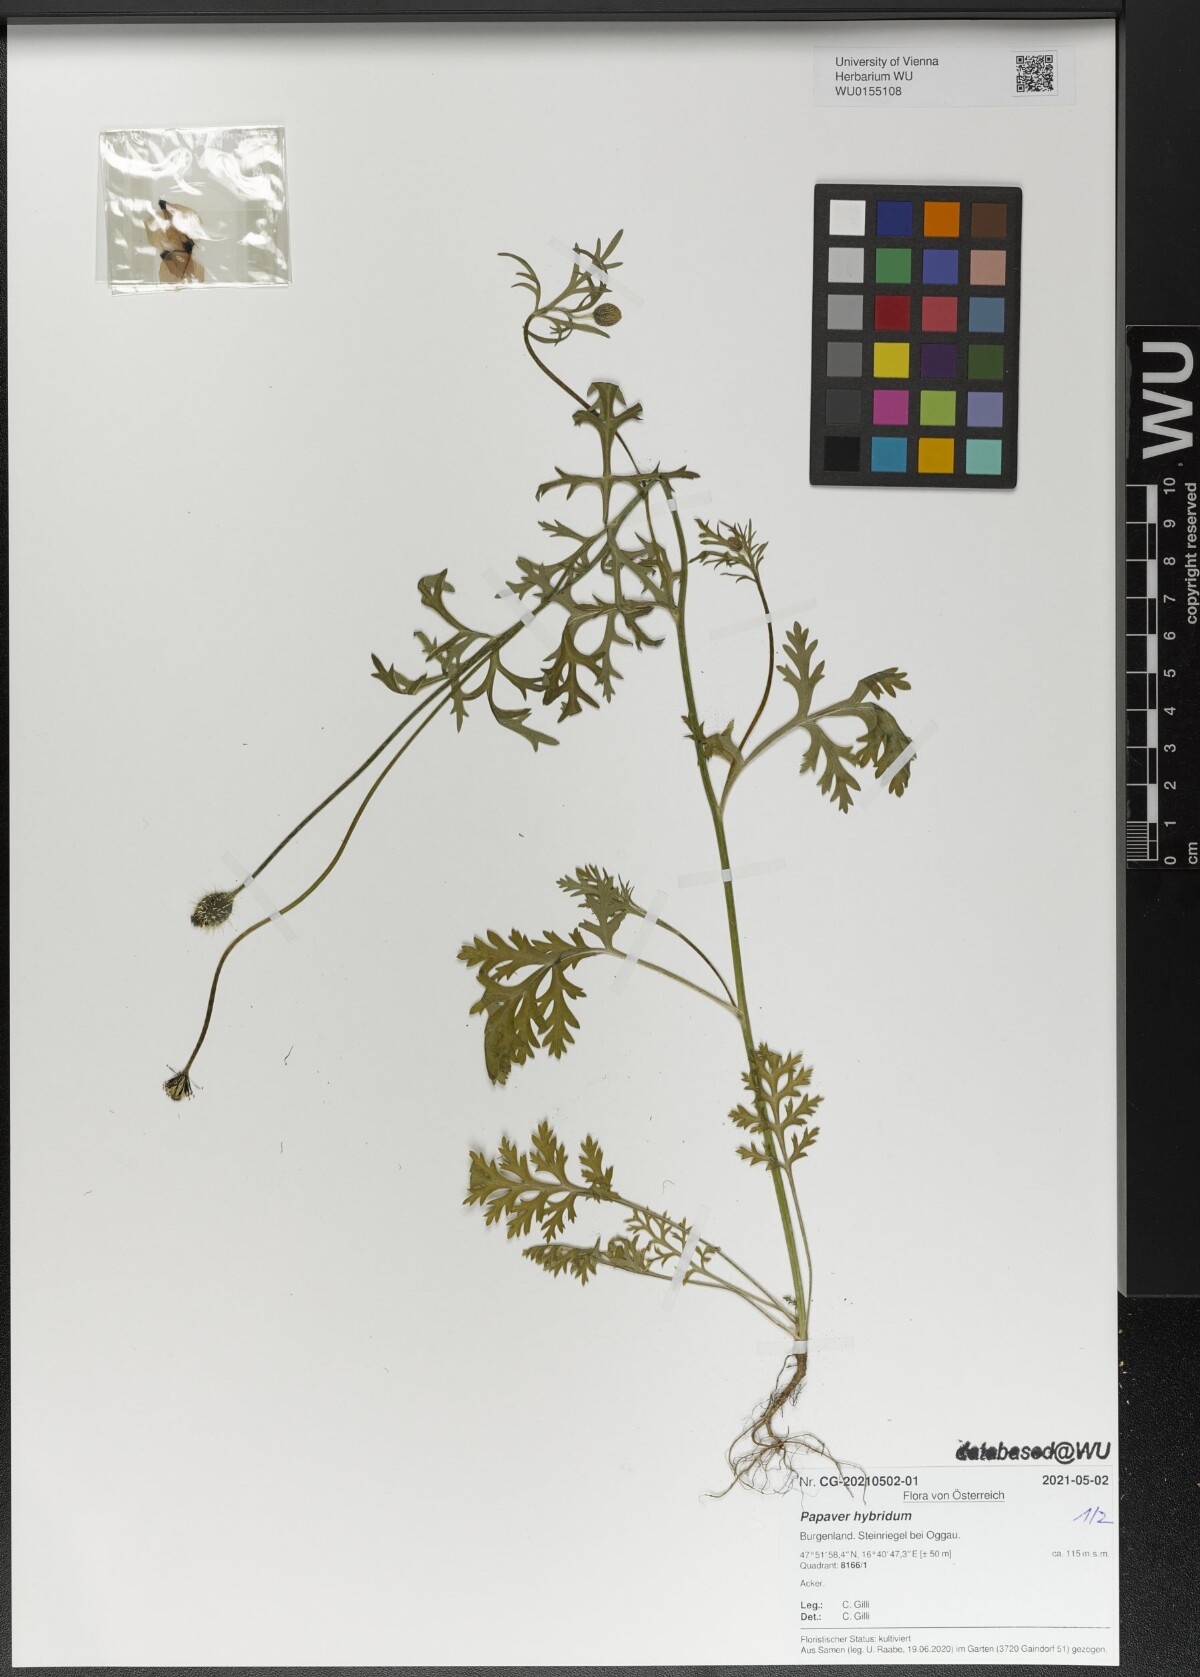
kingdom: Plantae
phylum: Tracheophyta
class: Magnoliopsida
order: Ranunculales
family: Papaveraceae
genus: Roemeria
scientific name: Roemeria hispida
